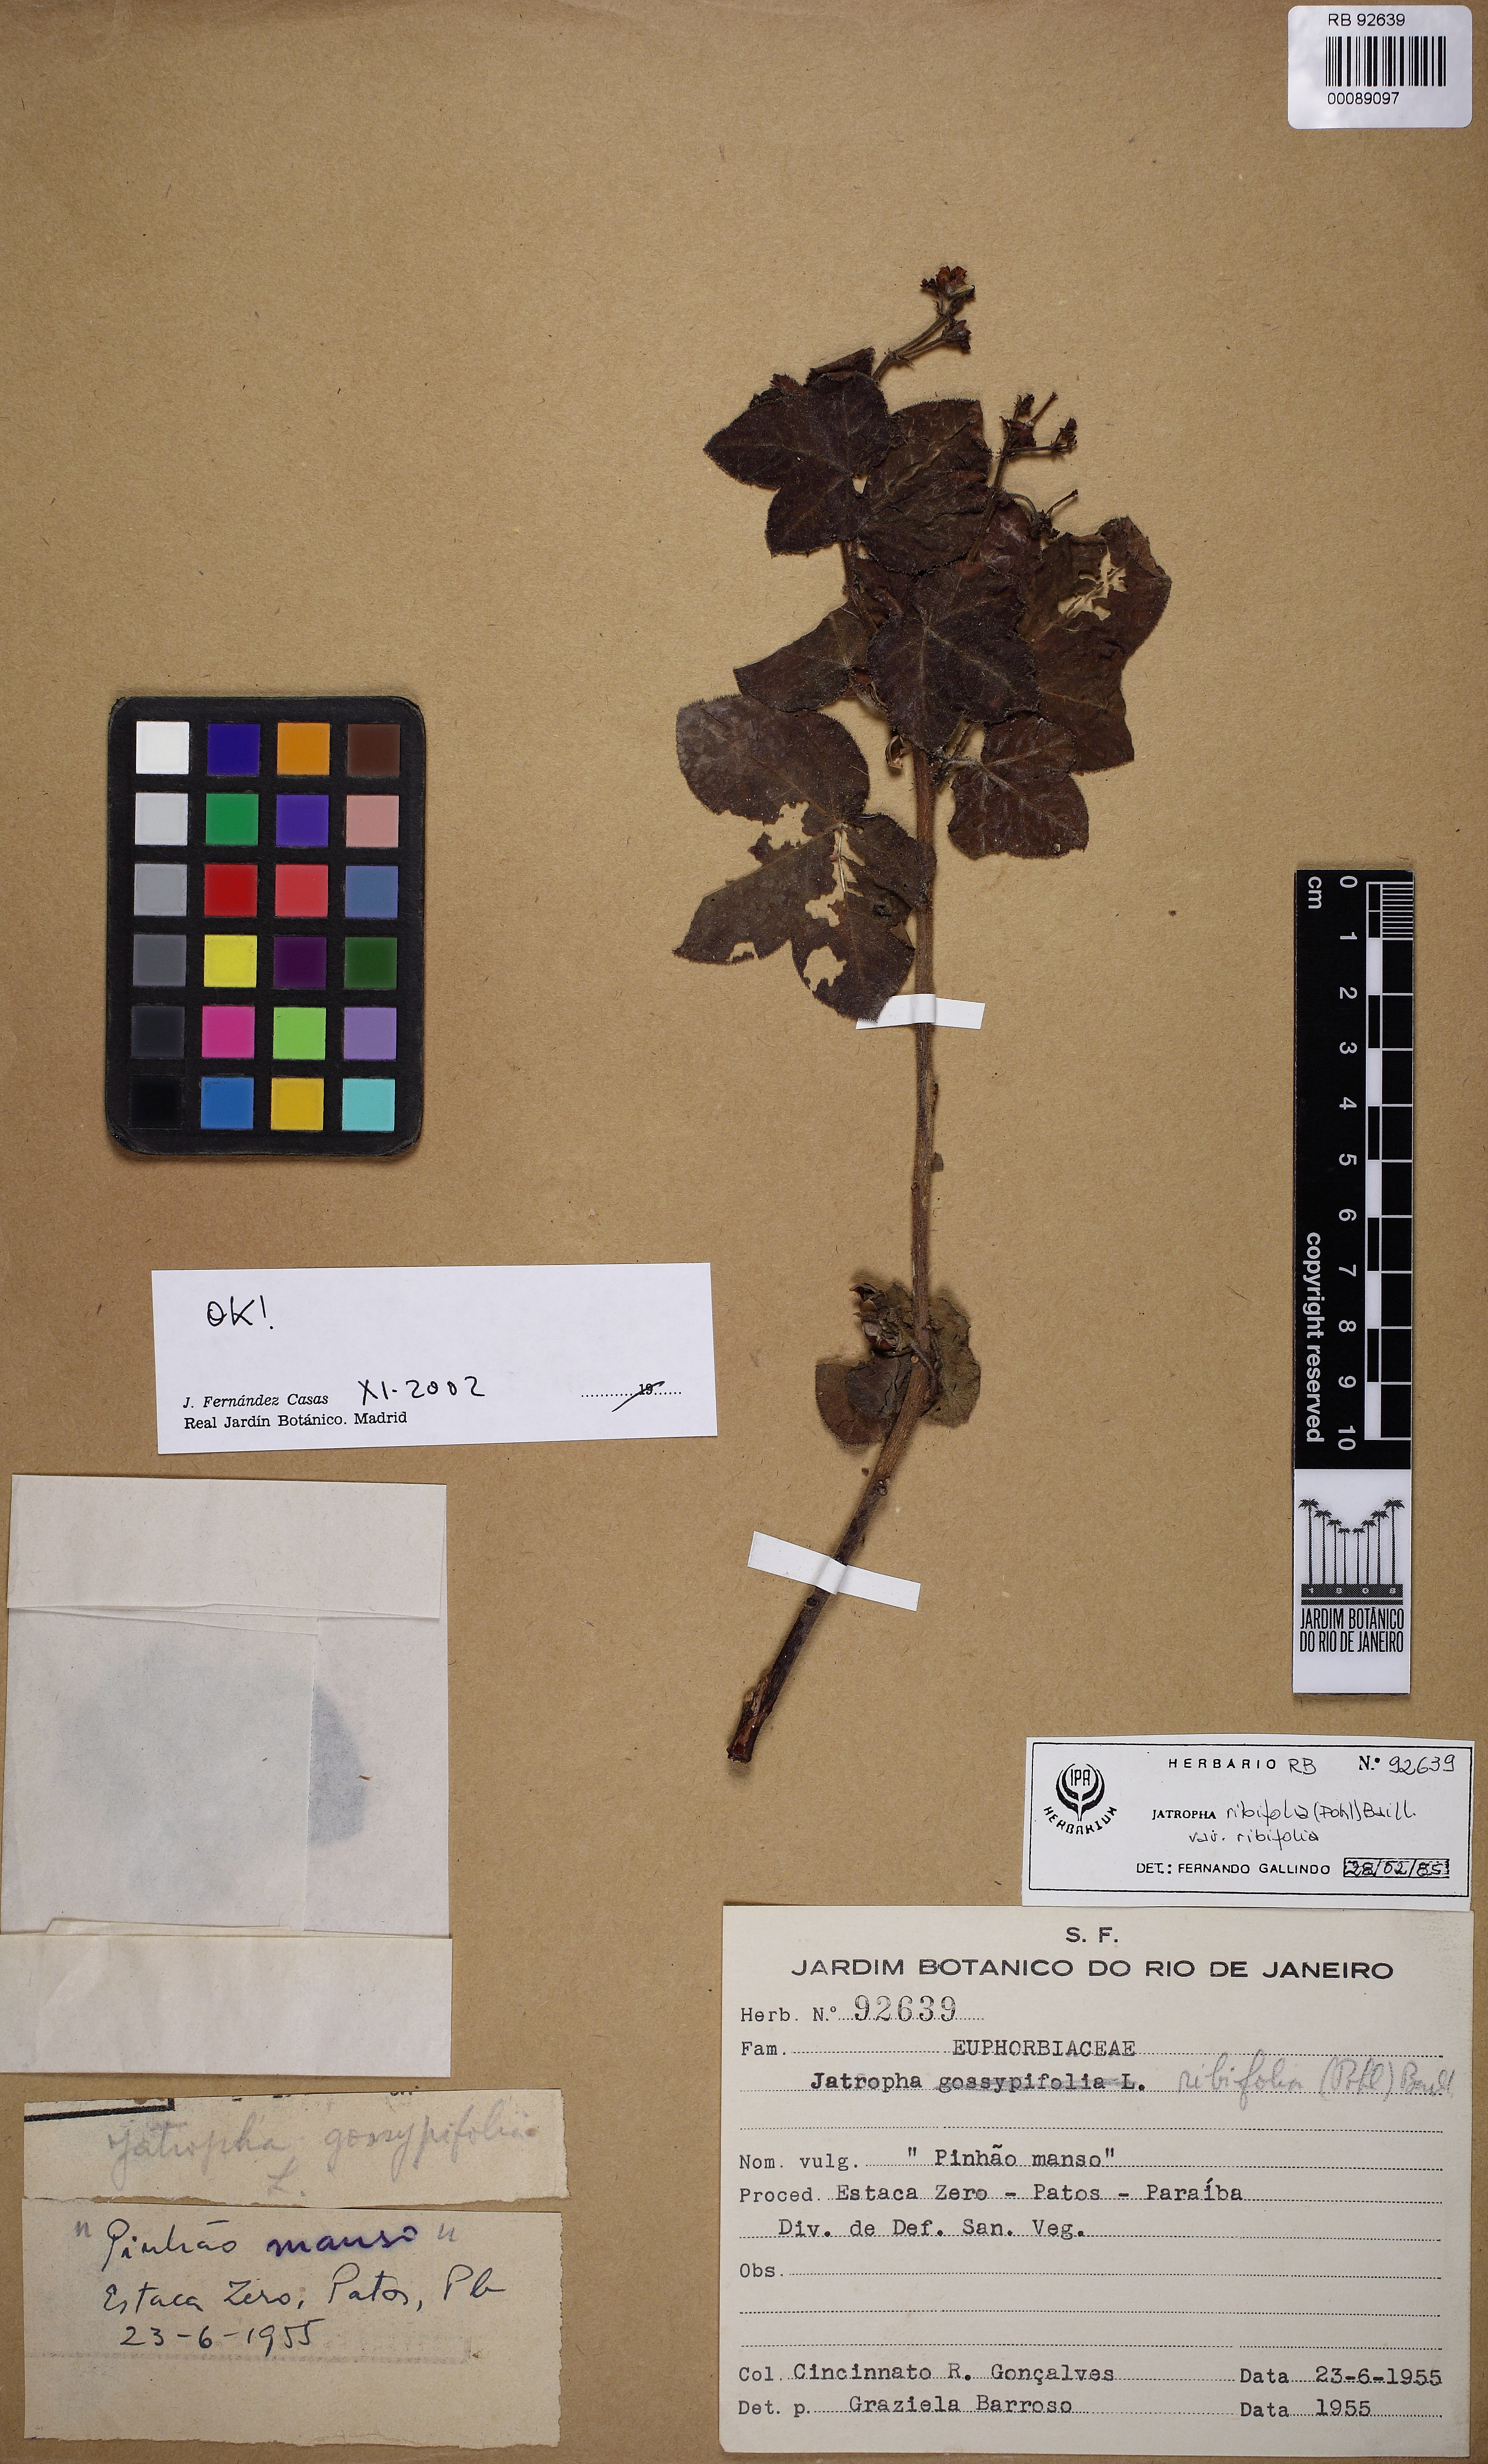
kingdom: Plantae
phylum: Tracheophyta
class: Magnoliopsida
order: Malpighiales
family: Euphorbiaceae
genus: Jatropha
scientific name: Jatropha ribifolia
